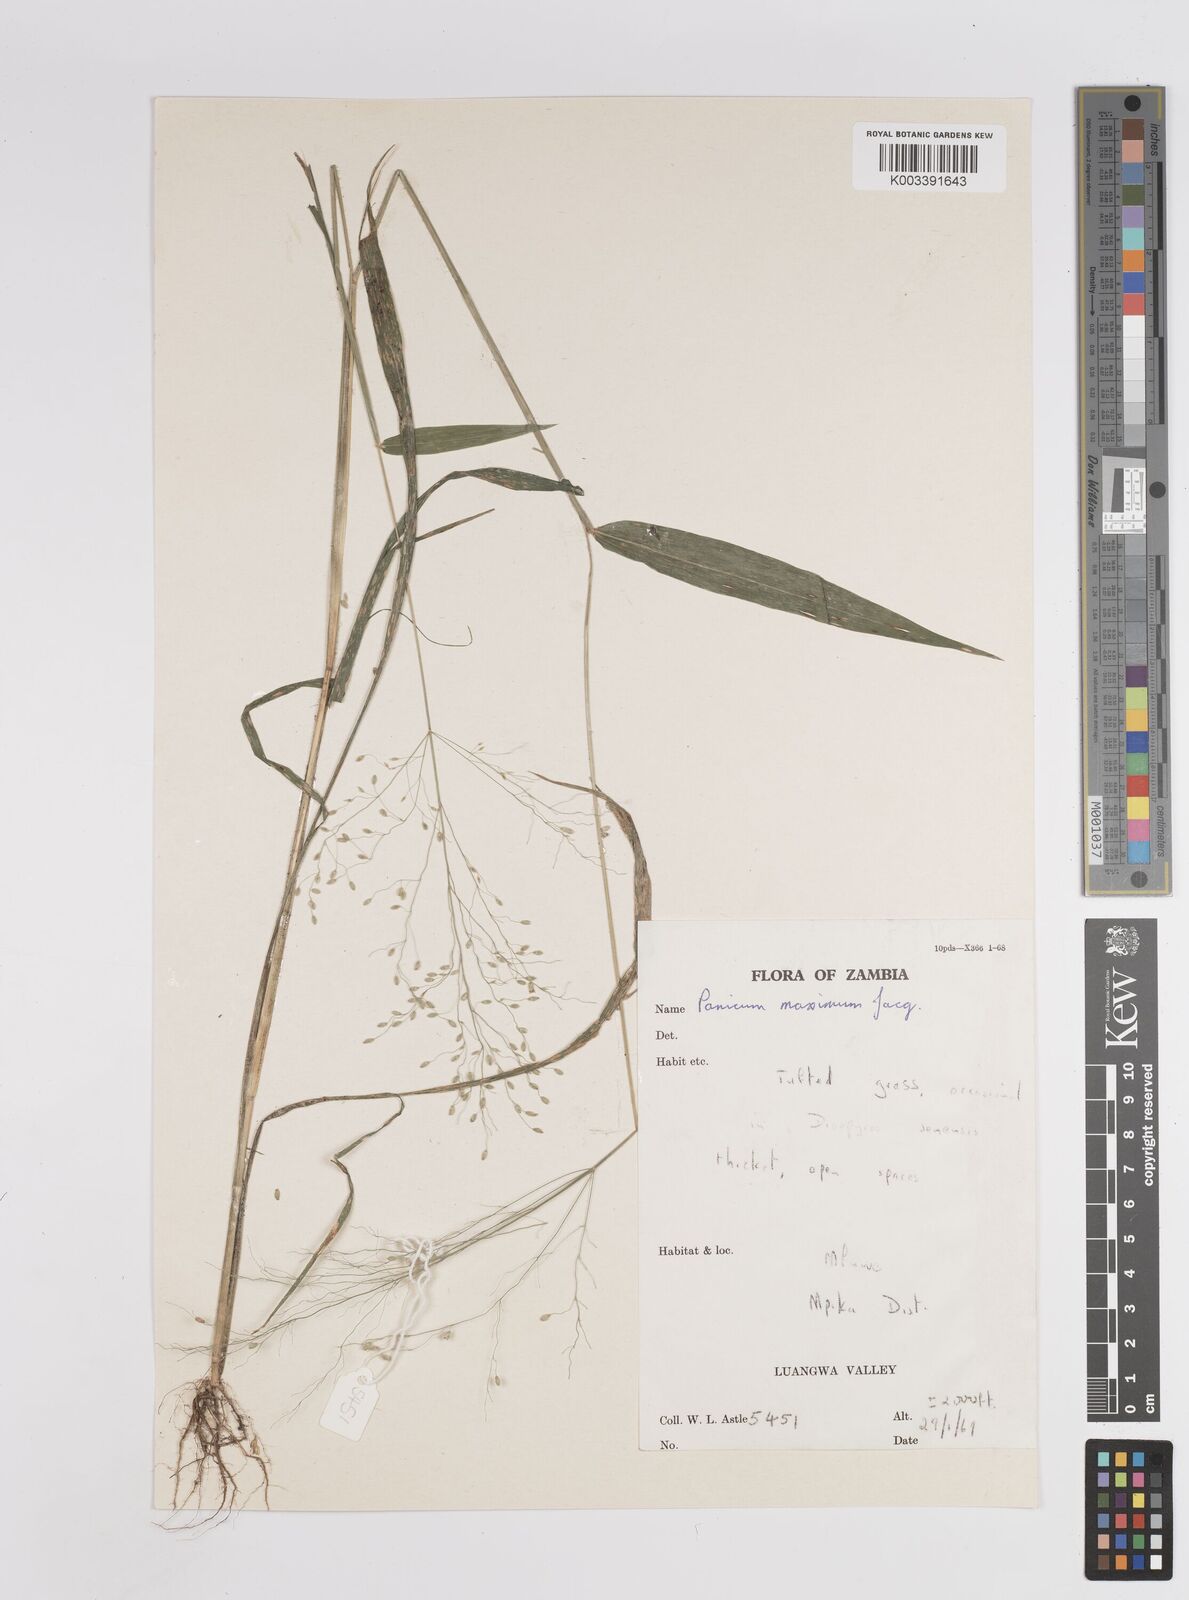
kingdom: Plantae
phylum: Tracheophyta
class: Liliopsida
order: Poales
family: Poaceae
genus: Megathyrsus
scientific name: Megathyrsus maximus
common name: Guineagrass
